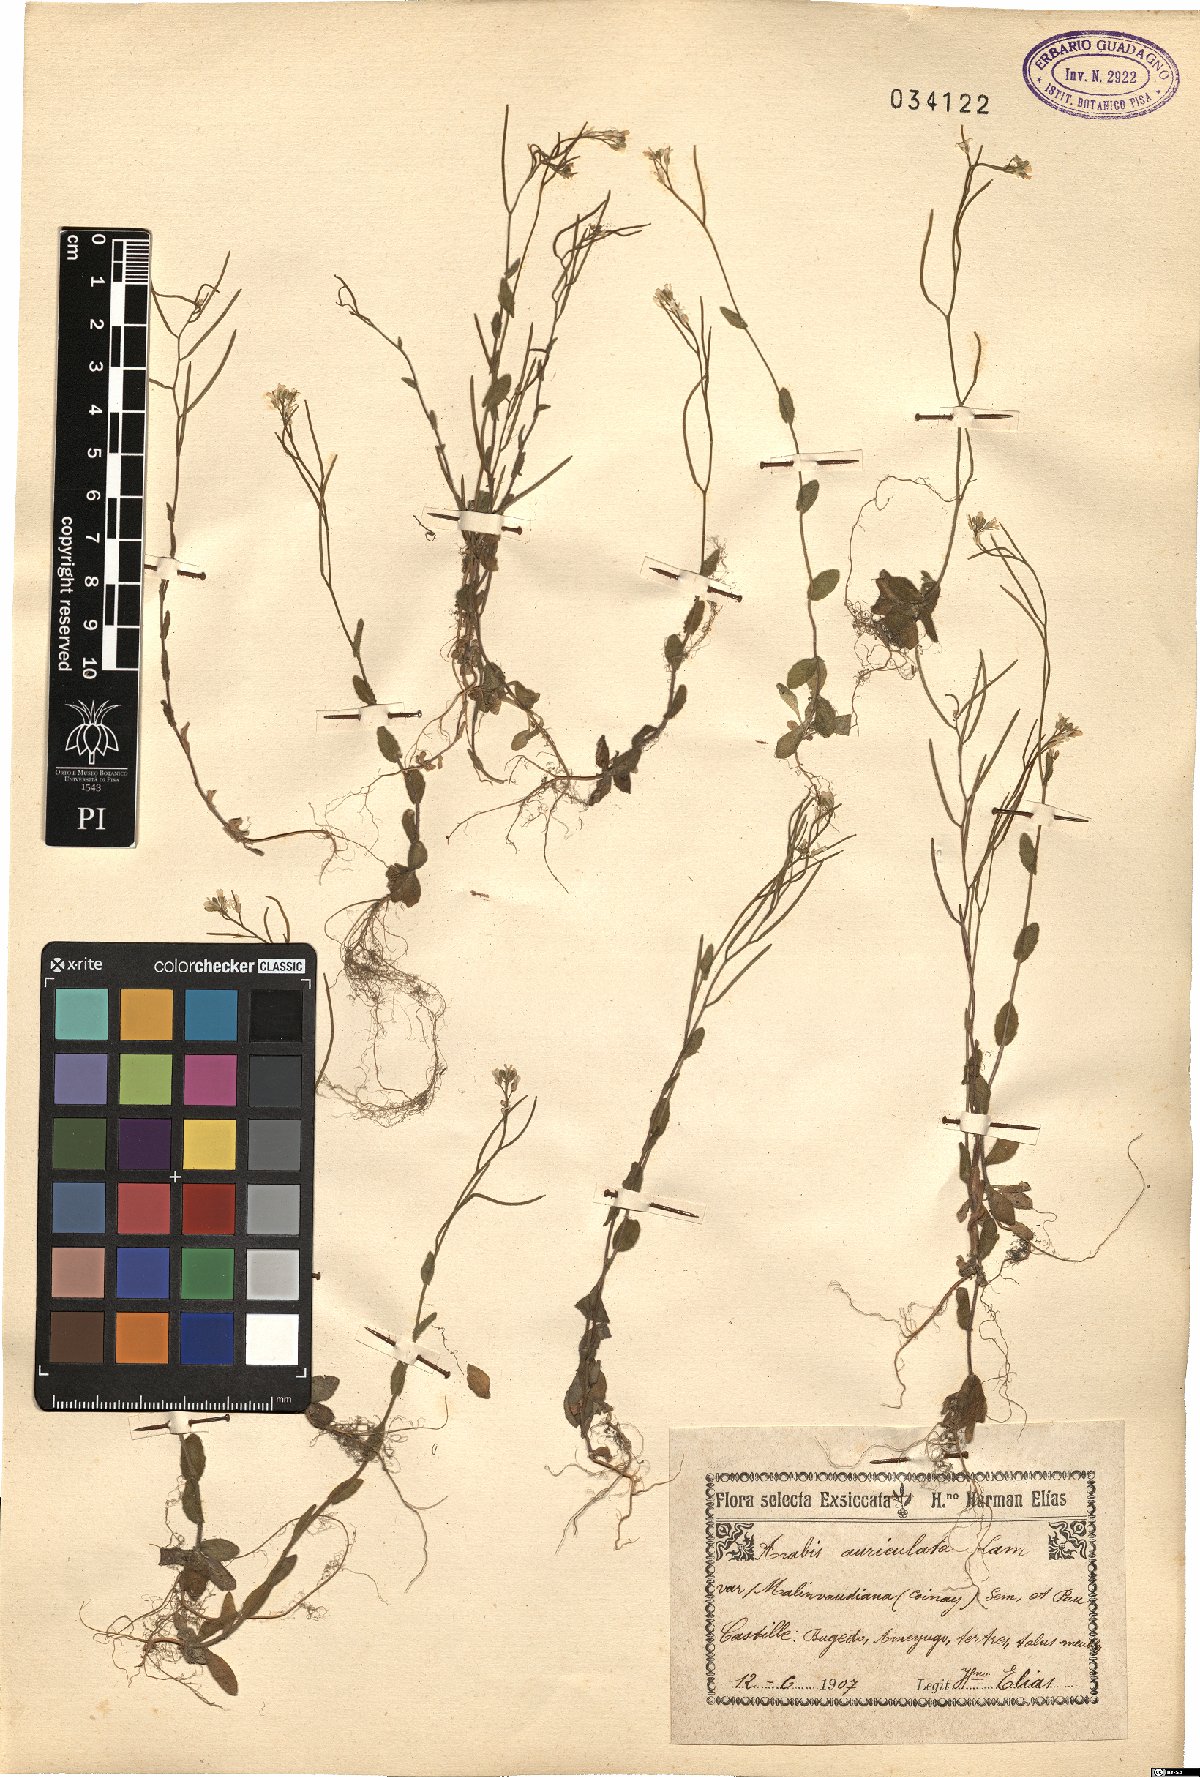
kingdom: Plantae
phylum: Tracheophyta
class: Magnoliopsida
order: Brassicales
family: Brassicaceae
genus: Arabis
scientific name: Arabis auriculata
